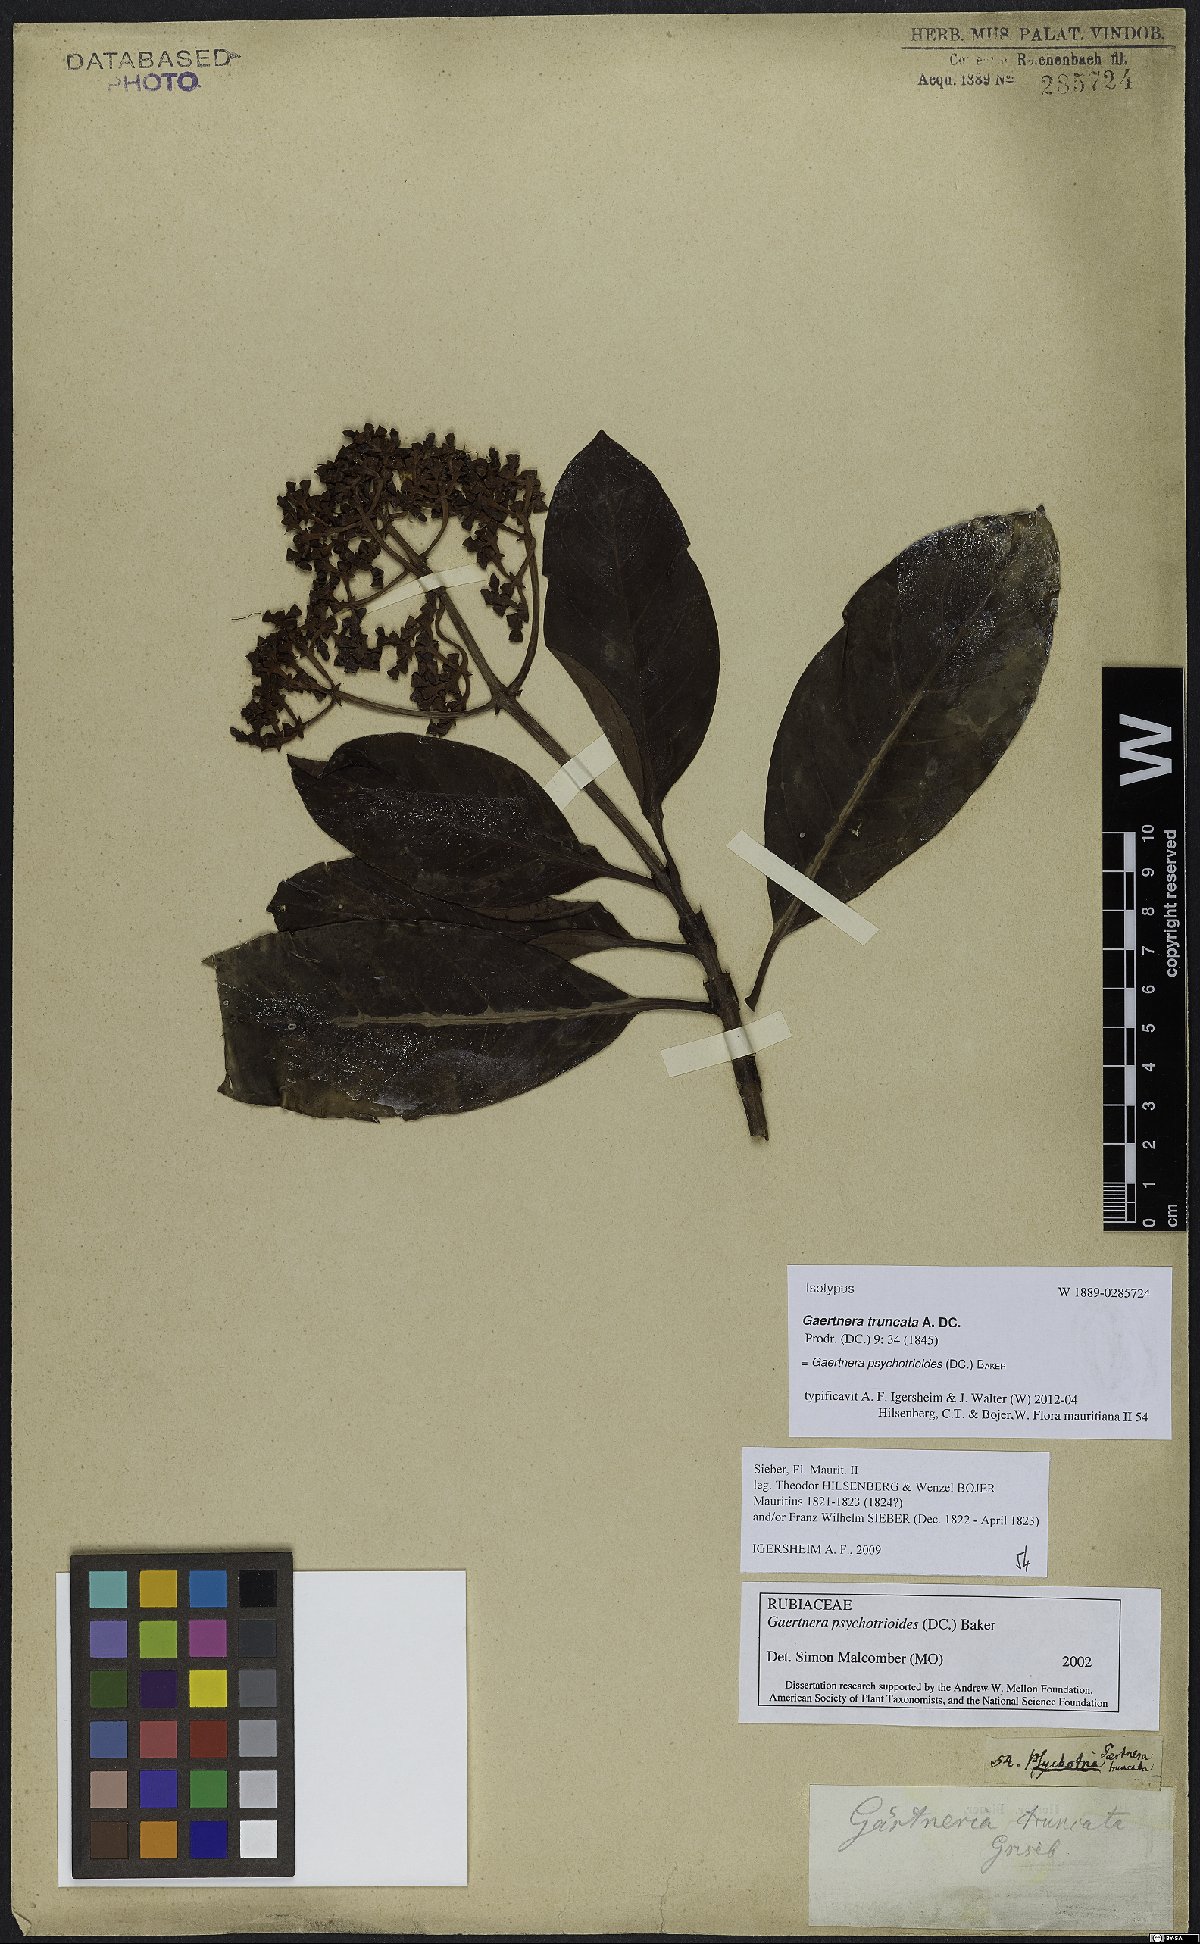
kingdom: Plantae
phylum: Tracheophyta
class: Magnoliopsida
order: Gentianales
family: Rubiaceae
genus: Gaertnera
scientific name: Gaertnera psychotrioides
